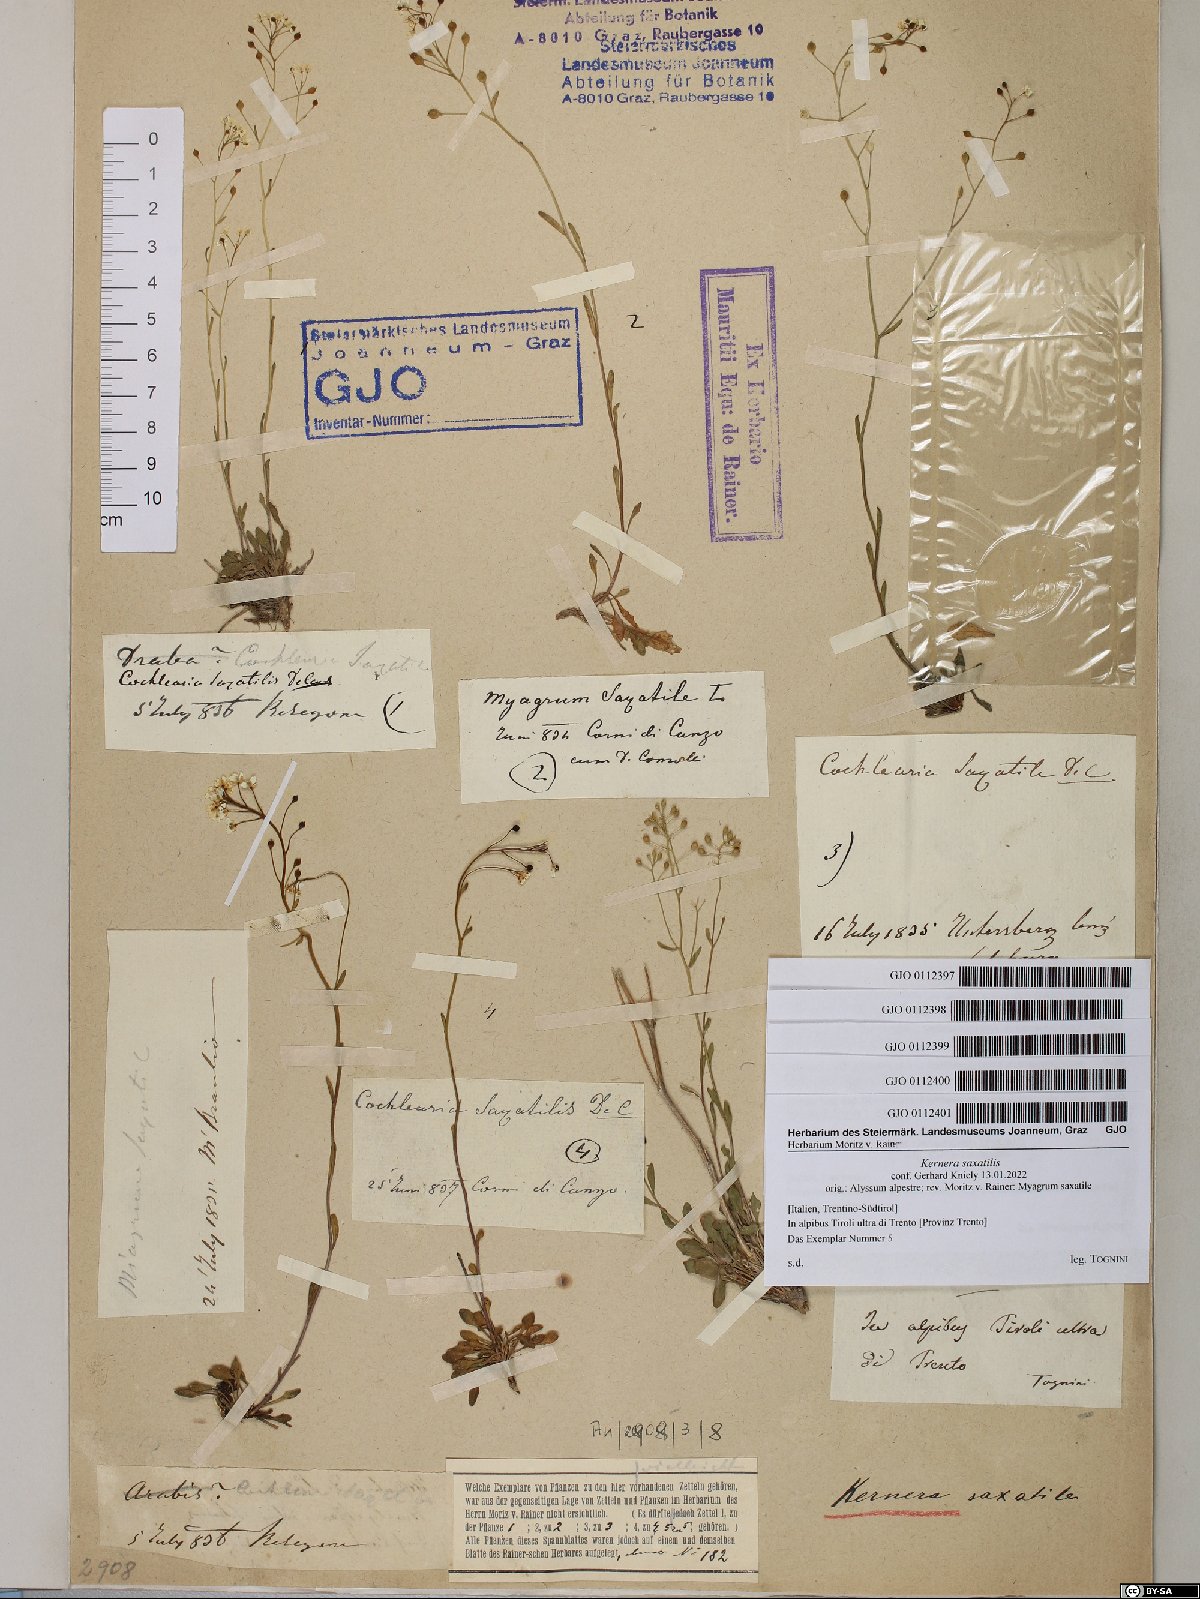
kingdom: Plantae
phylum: Tracheophyta
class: Magnoliopsida
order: Brassicales
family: Brassicaceae
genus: Kernera
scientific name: Kernera saxatilis
